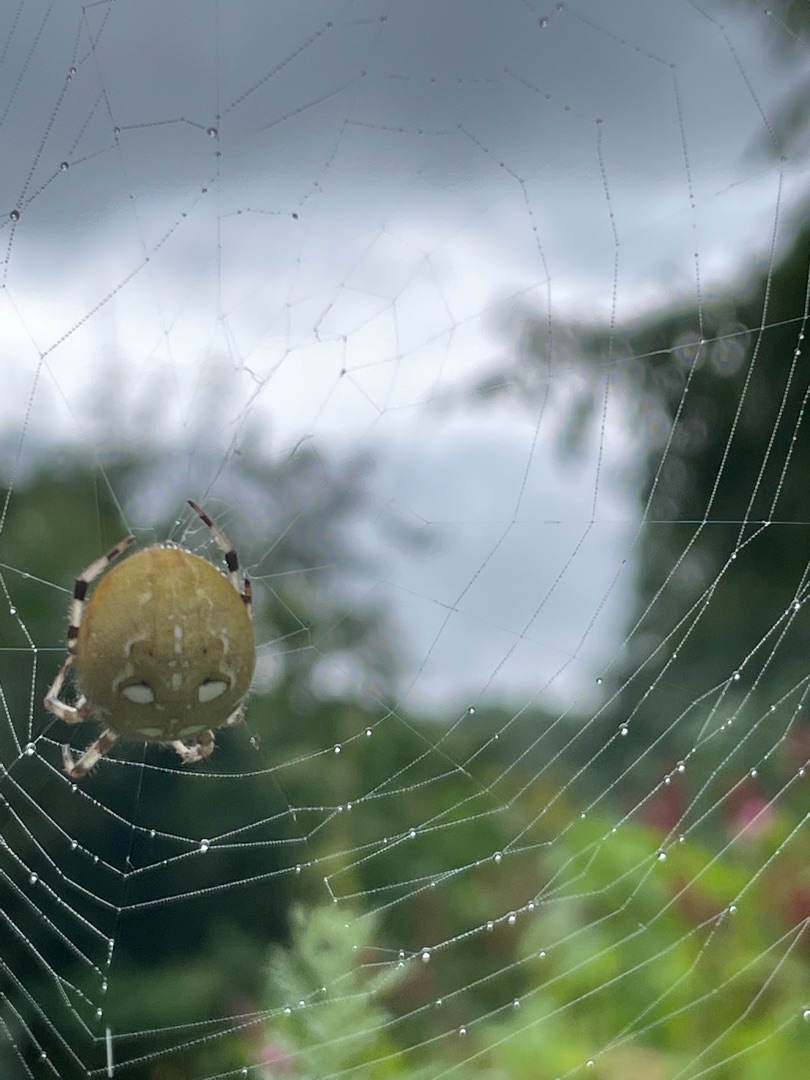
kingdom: Animalia
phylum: Arthropoda
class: Arachnida
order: Araneae
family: Araneidae
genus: Araneus
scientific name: Araneus quadratus
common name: Kvadratedderkop
